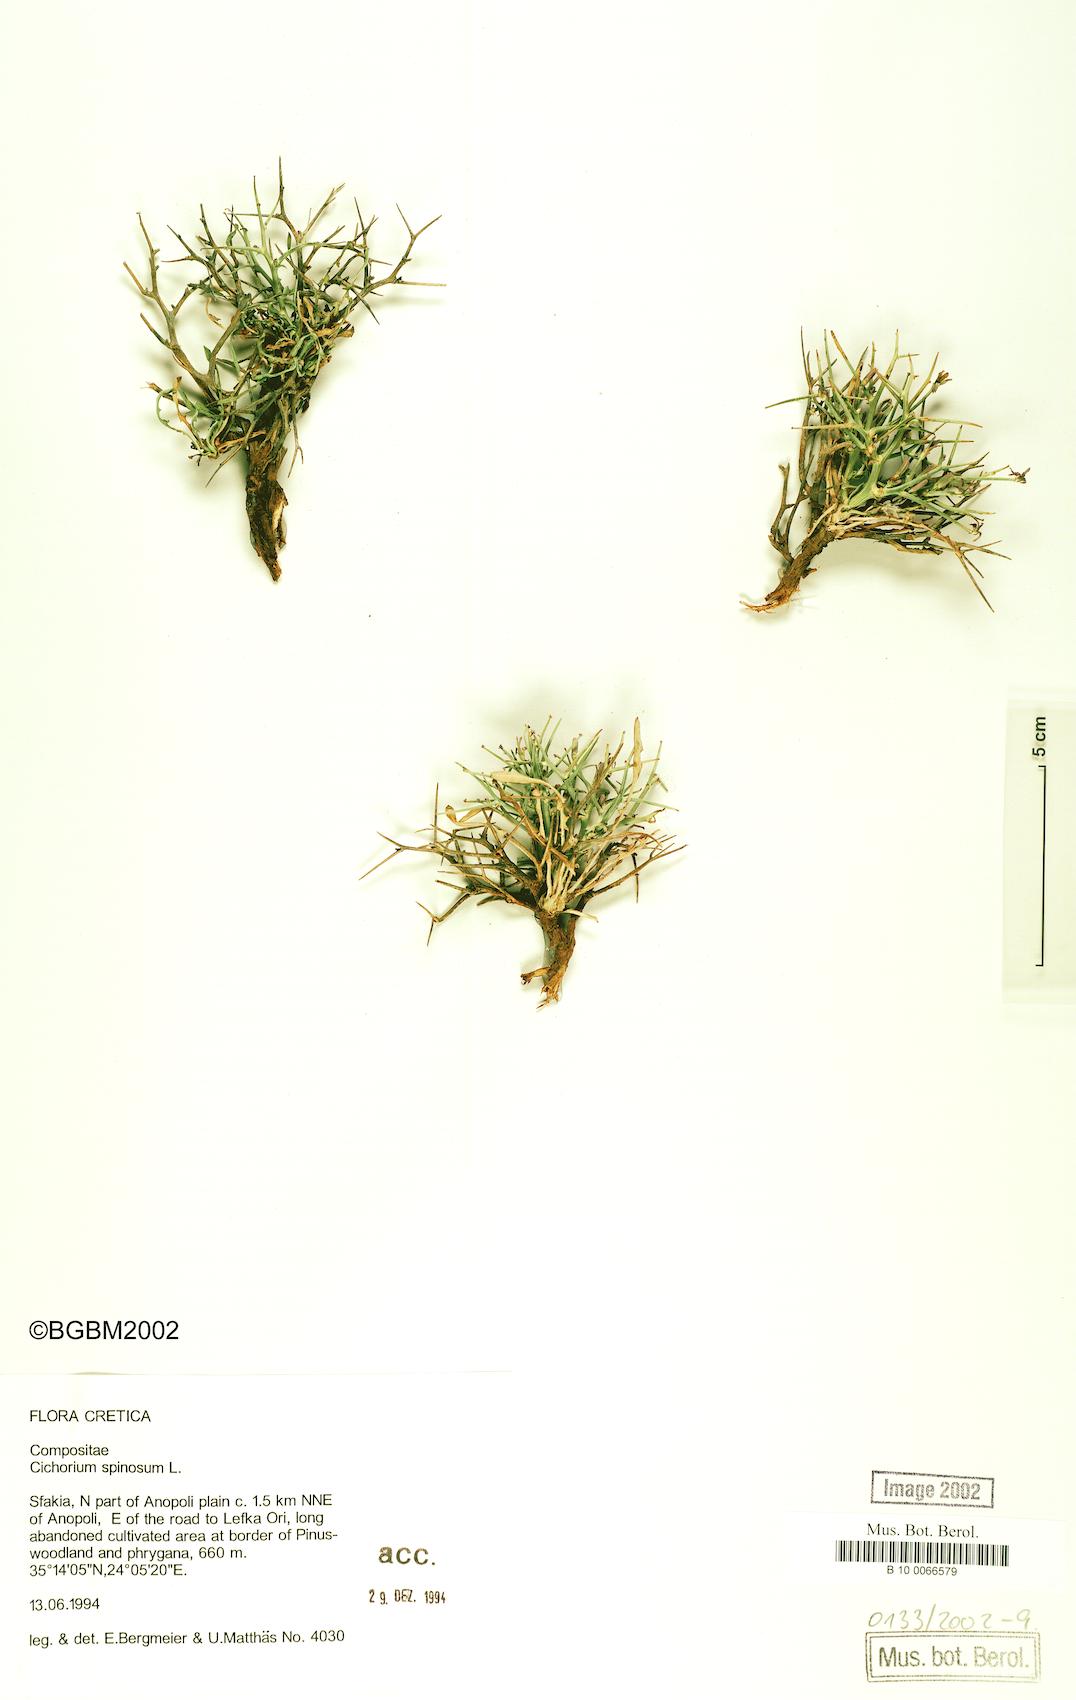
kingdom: Plantae
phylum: Tracheophyta
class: Magnoliopsida
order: Asterales
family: Asteraceae
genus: Cichorium
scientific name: Cichorium spinosum
